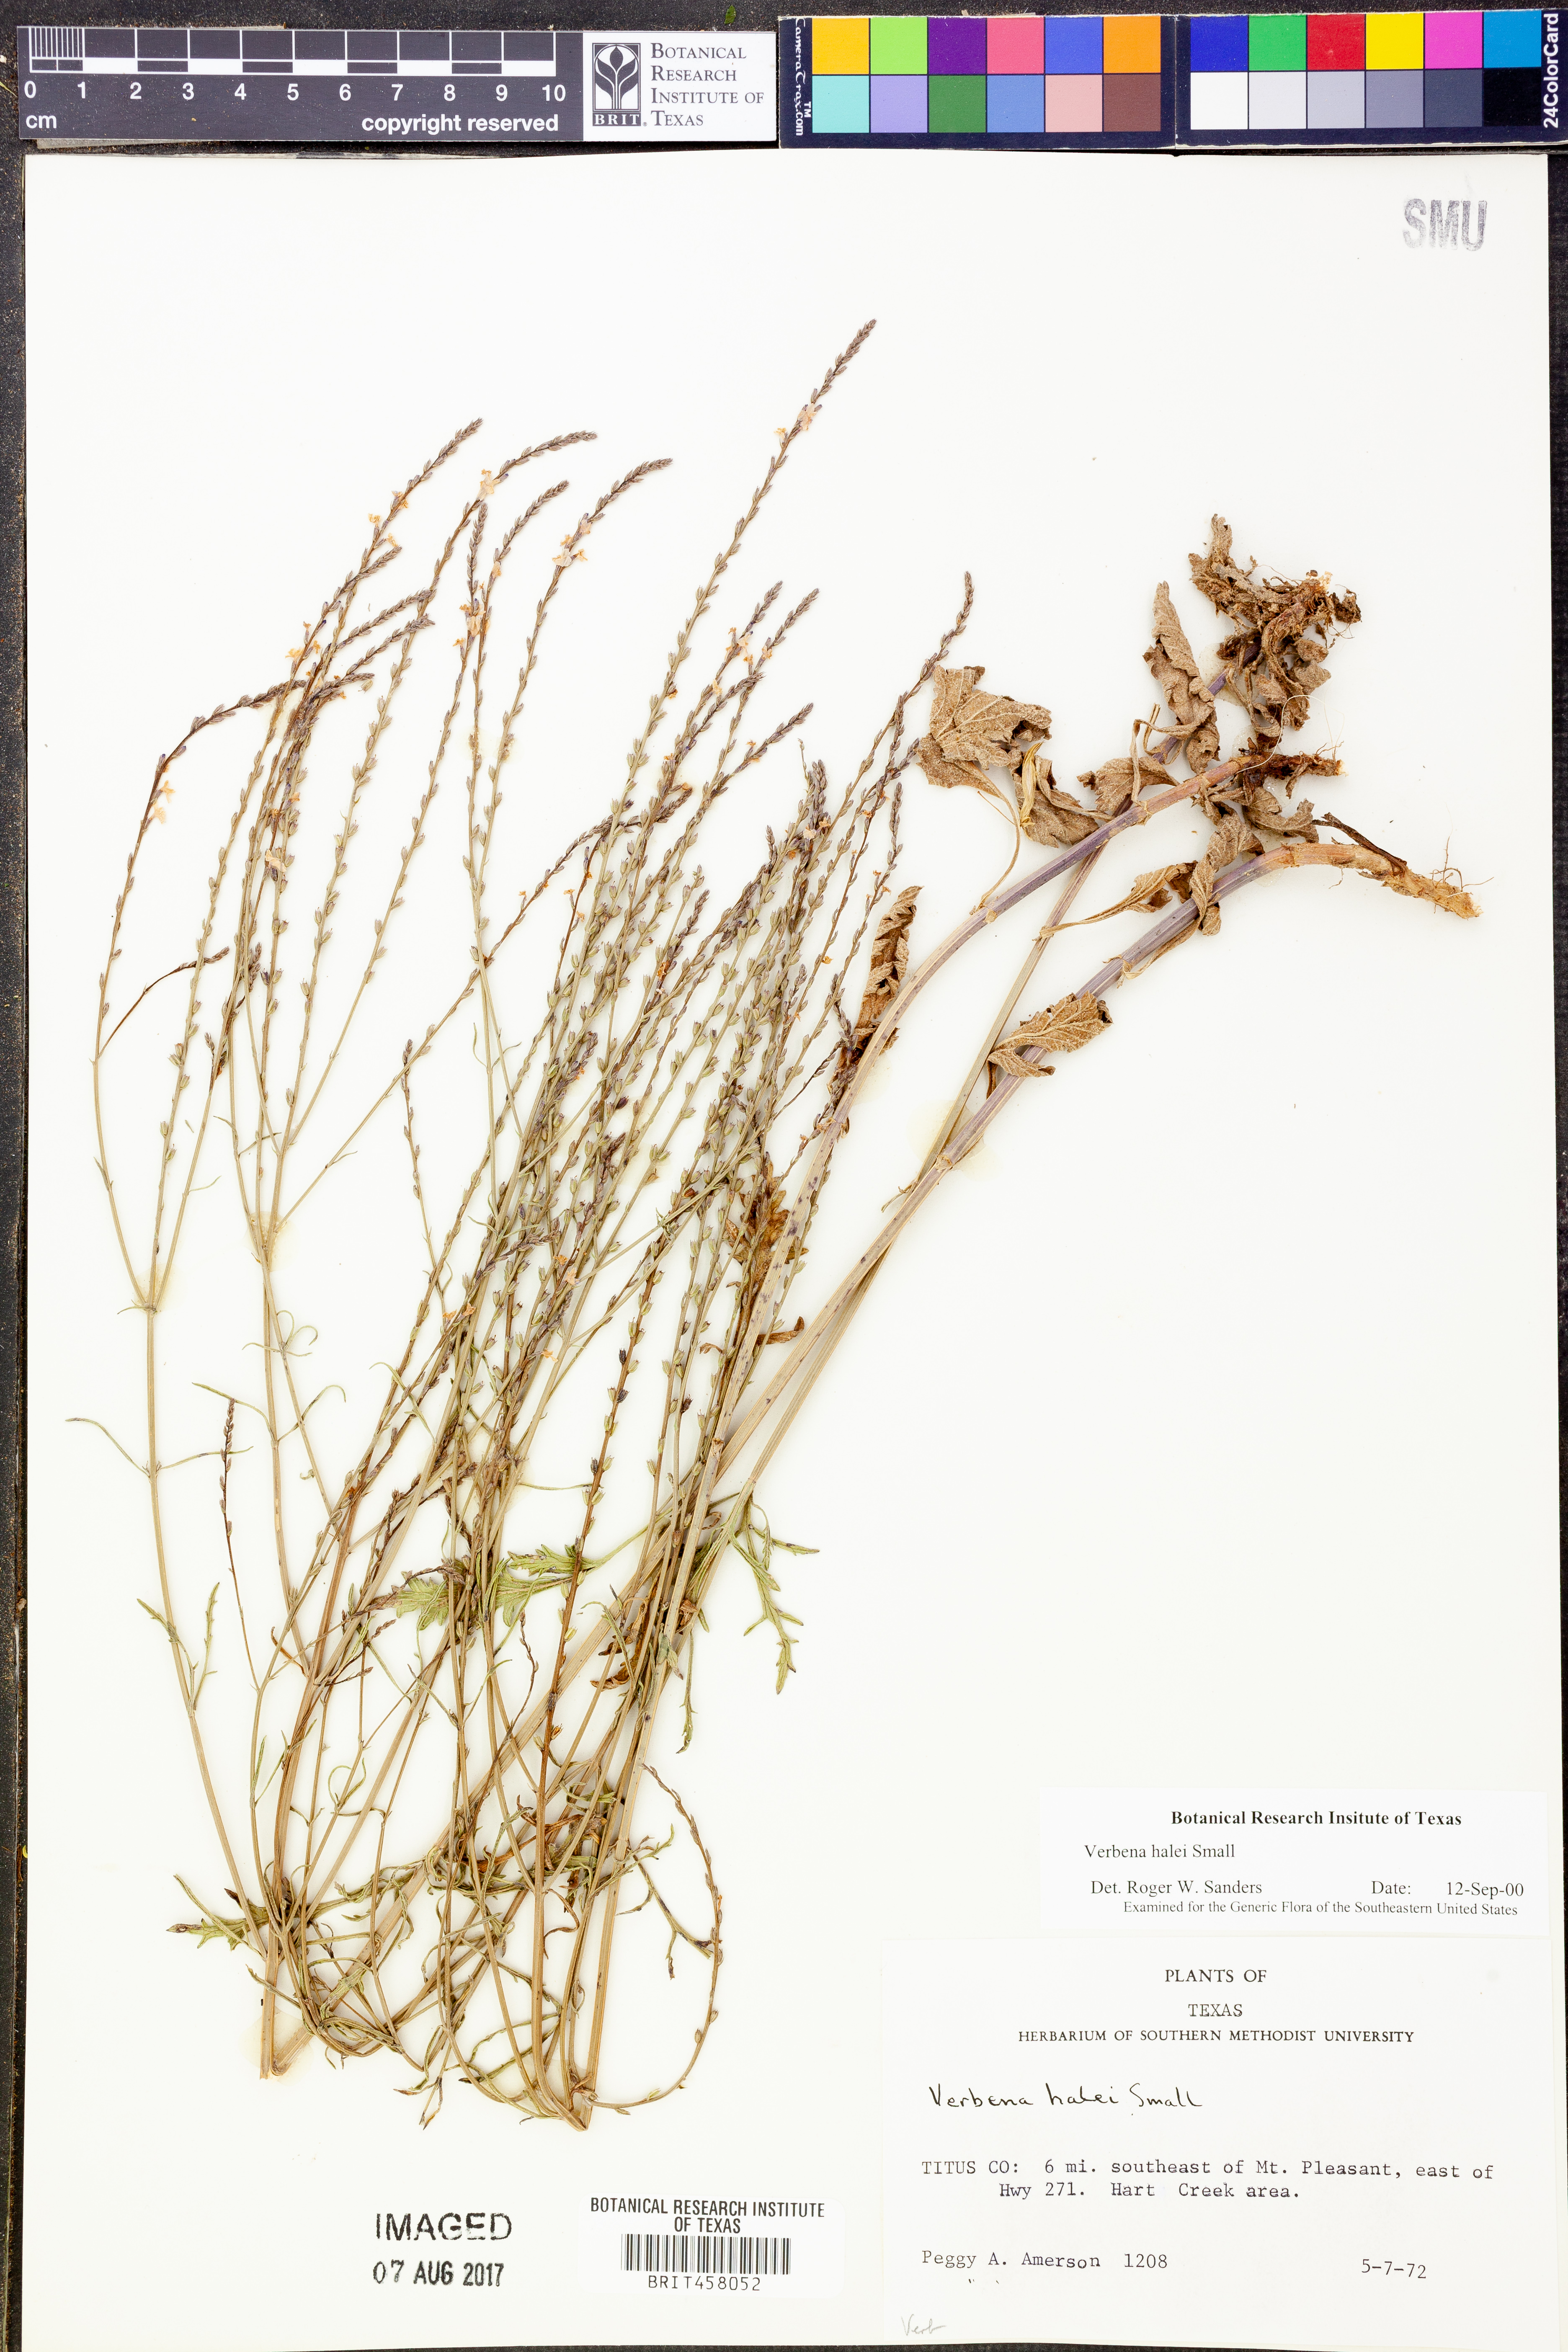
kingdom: Plantae
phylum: Tracheophyta
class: Magnoliopsida
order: Lamiales
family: Verbenaceae
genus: Verbena
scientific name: Verbena halei
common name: Texas vervain
